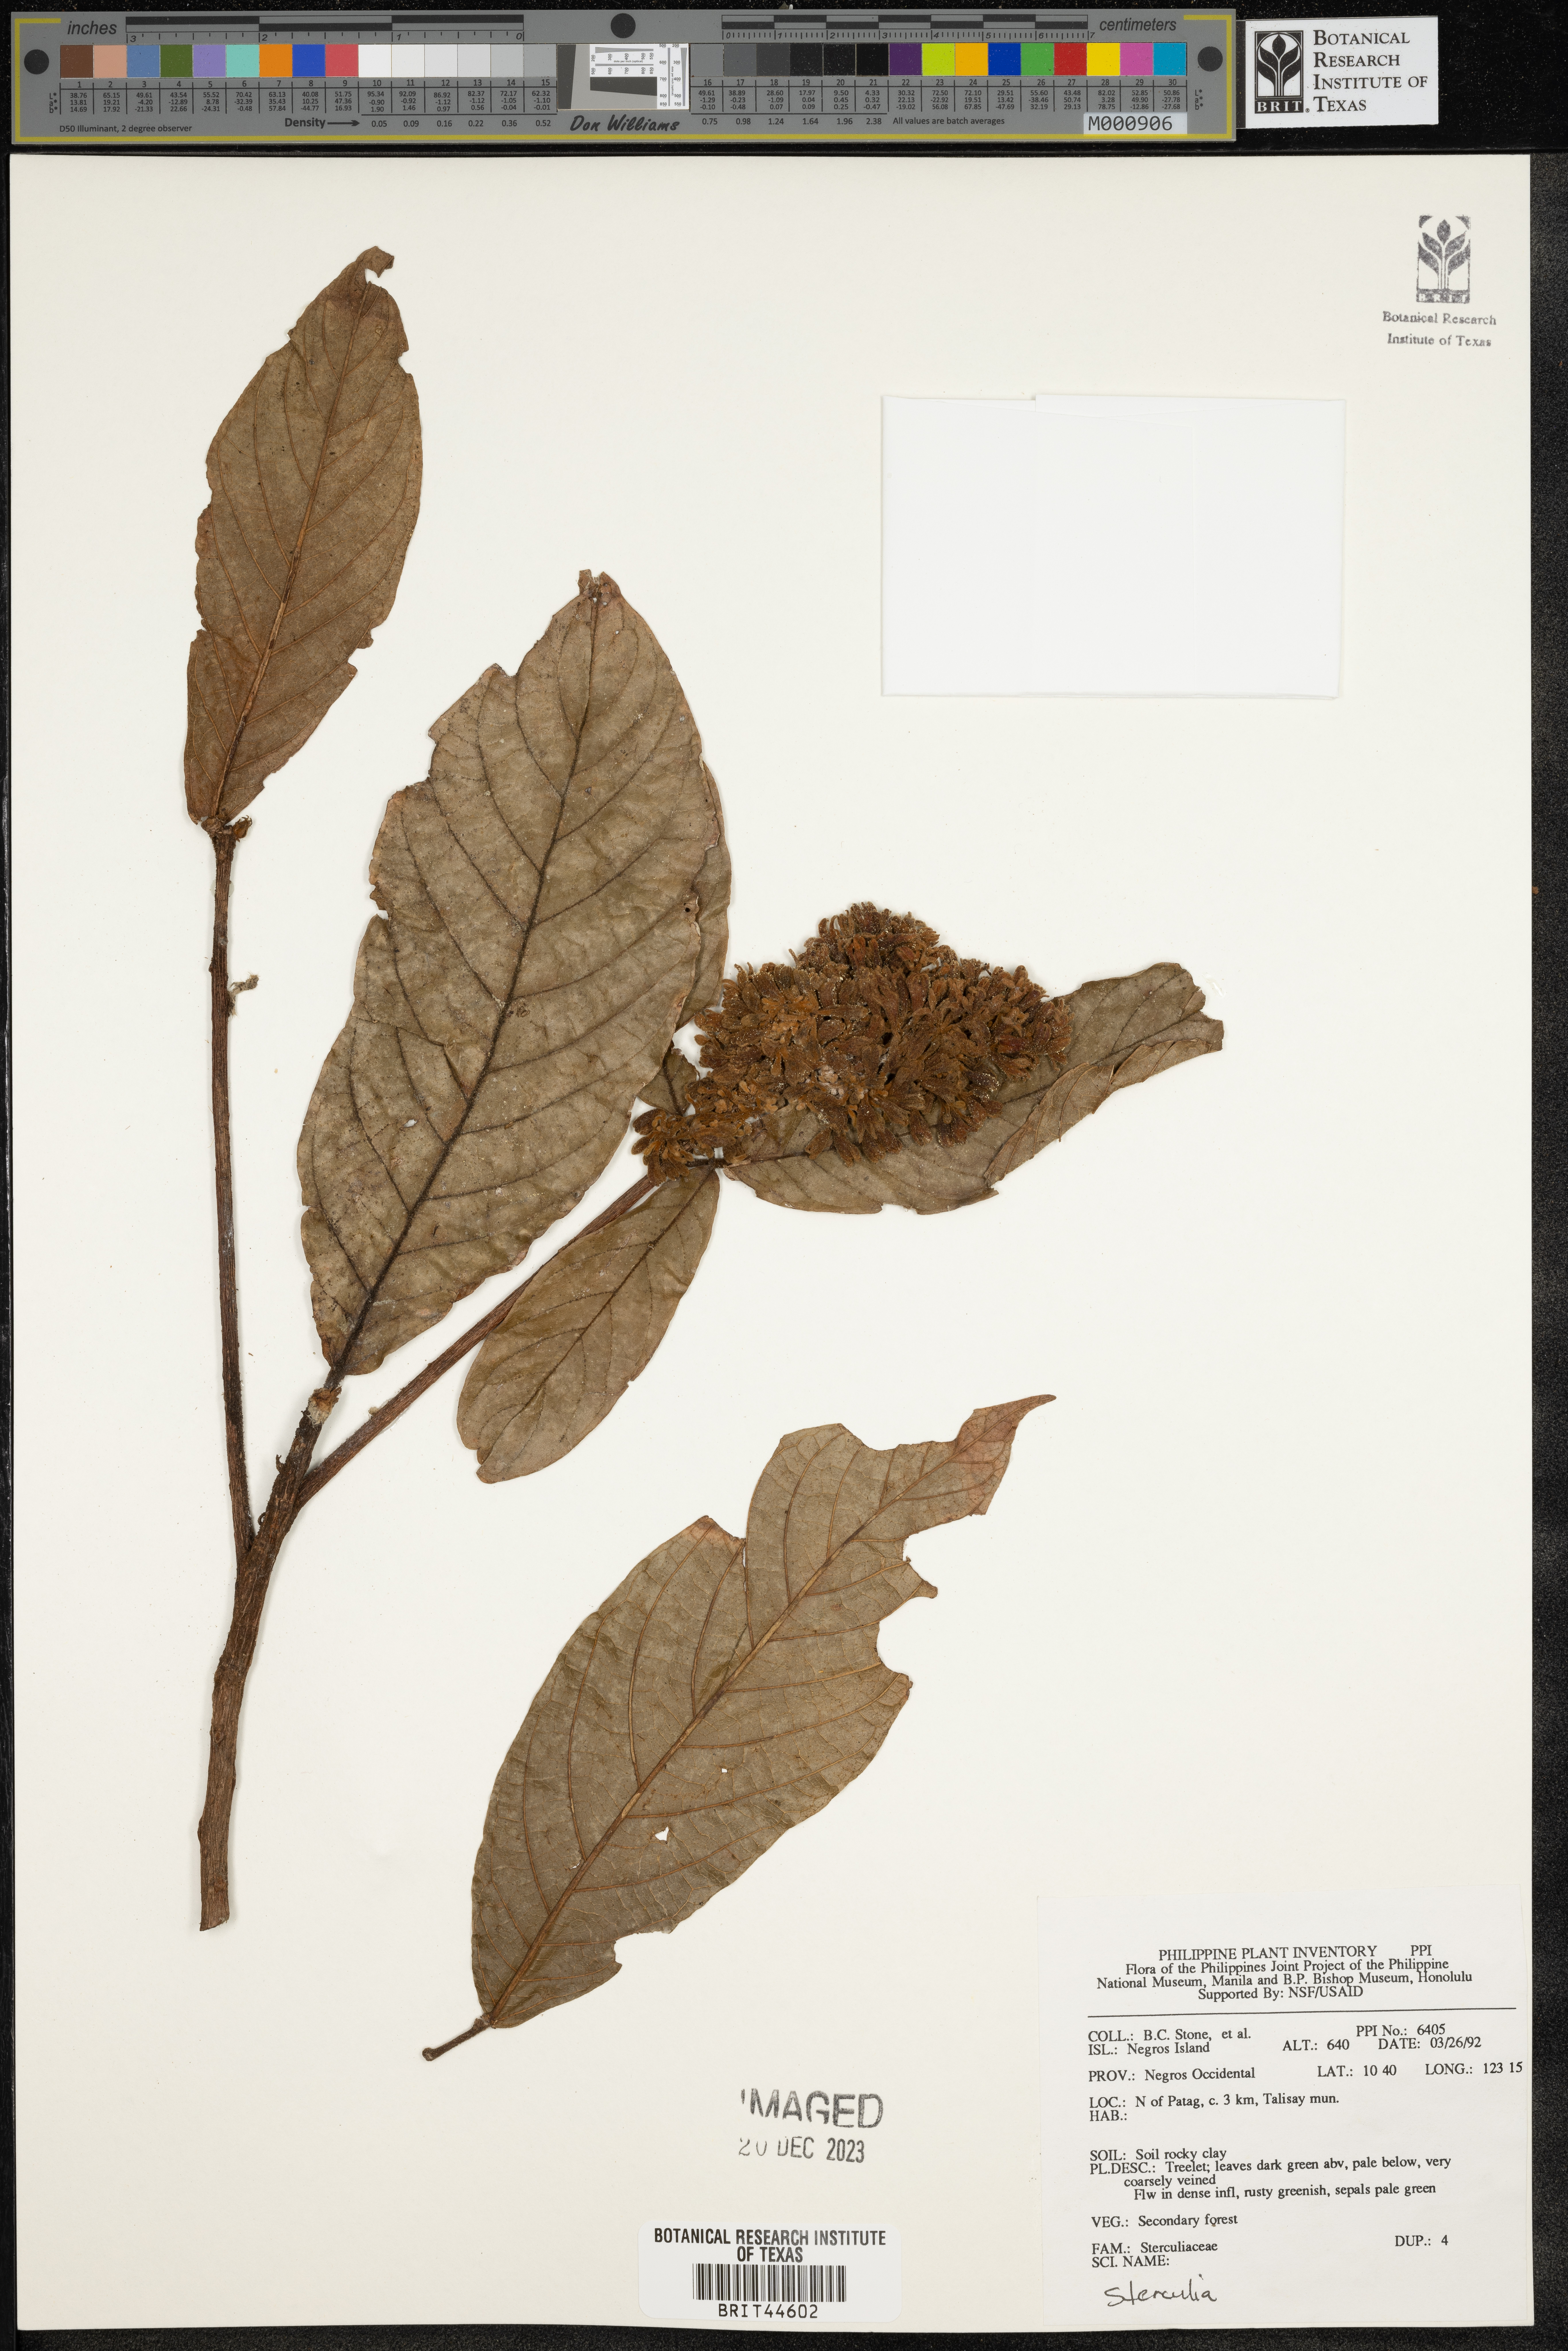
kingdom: Plantae
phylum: Tracheophyta
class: Magnoliopsida
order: Malvales
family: Malvaceae
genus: Sterculia
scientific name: Sterculia
